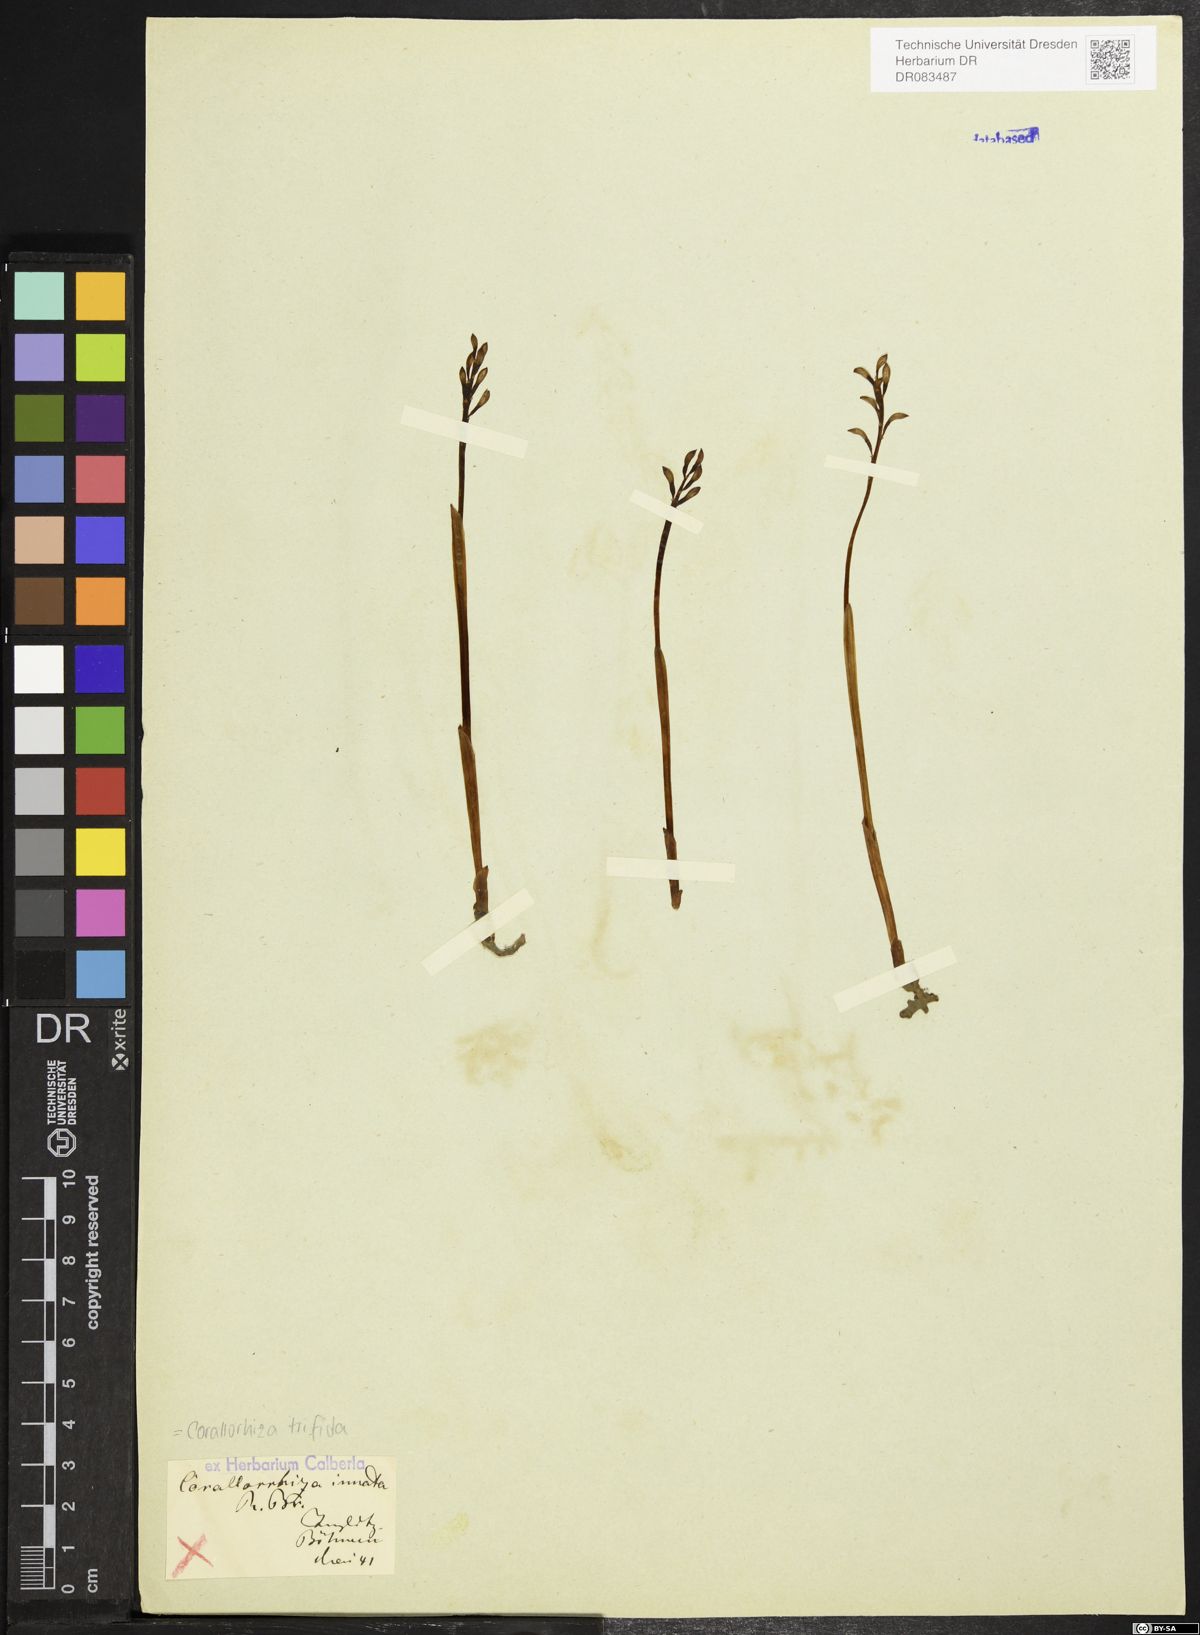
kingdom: Plantae
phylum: Tracheophyta
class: Liliopsida
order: Asparagales
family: Orchidaceae
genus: Corallorhiza
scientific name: Corallorhiza trifida
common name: Yellow coralroot
